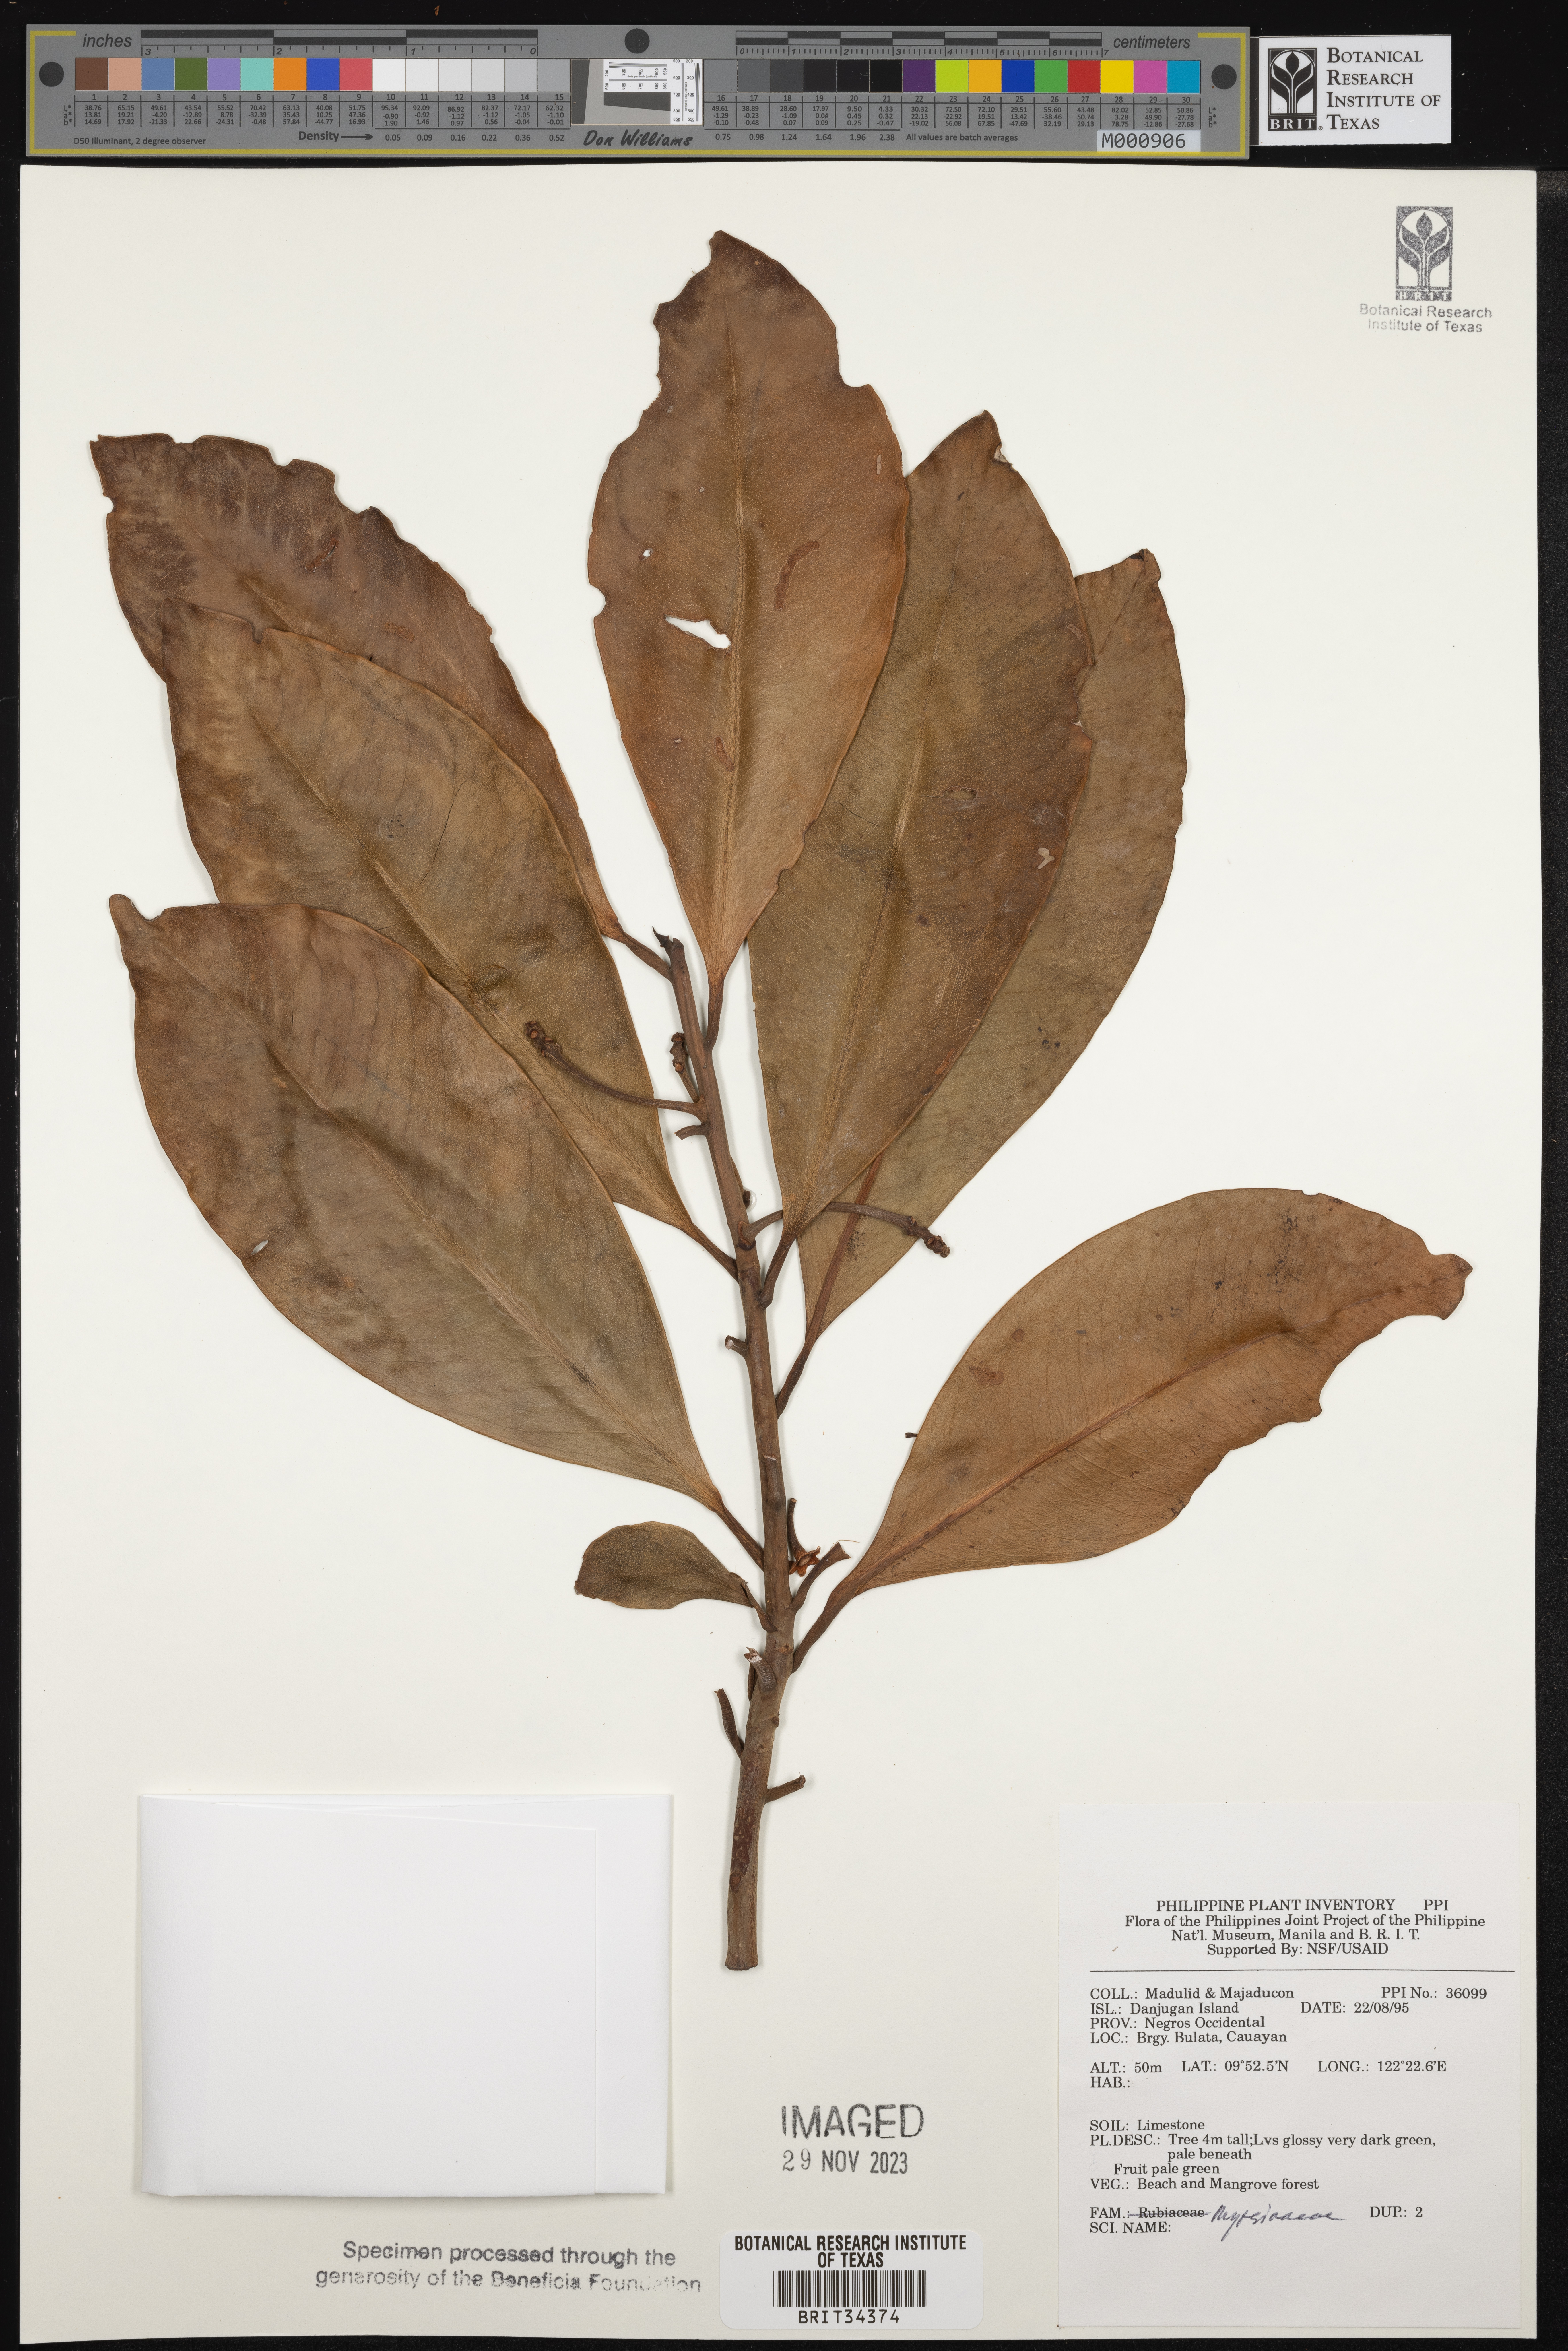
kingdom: Plantae
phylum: Tracheophyta
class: Magnoliopsida
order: Ericales
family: Primulaceae
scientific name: Primulaceae
